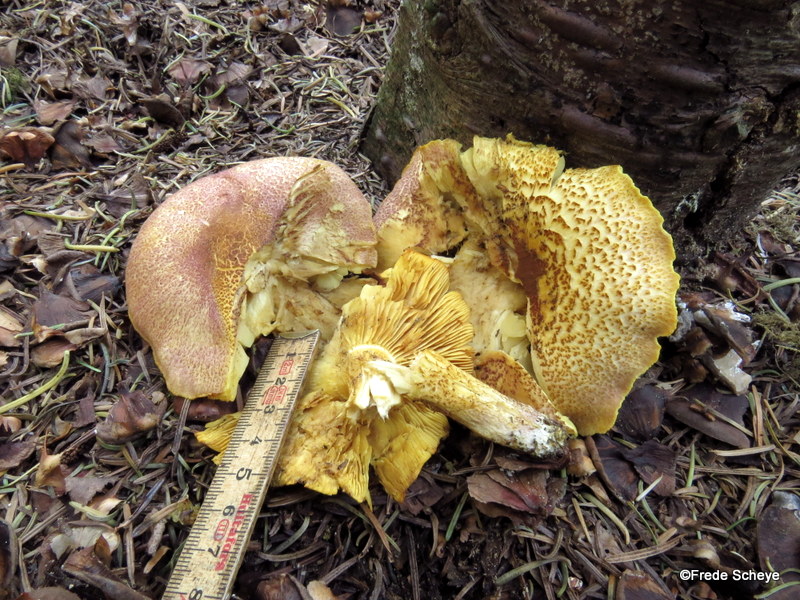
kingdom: Fungi
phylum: Basidiomycota
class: Agaricomycetes
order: Agaricales
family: Tricholomataceae
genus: Tricholomopsis
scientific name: Tricholomopsis rutilans
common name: purpur-væbnerhat
